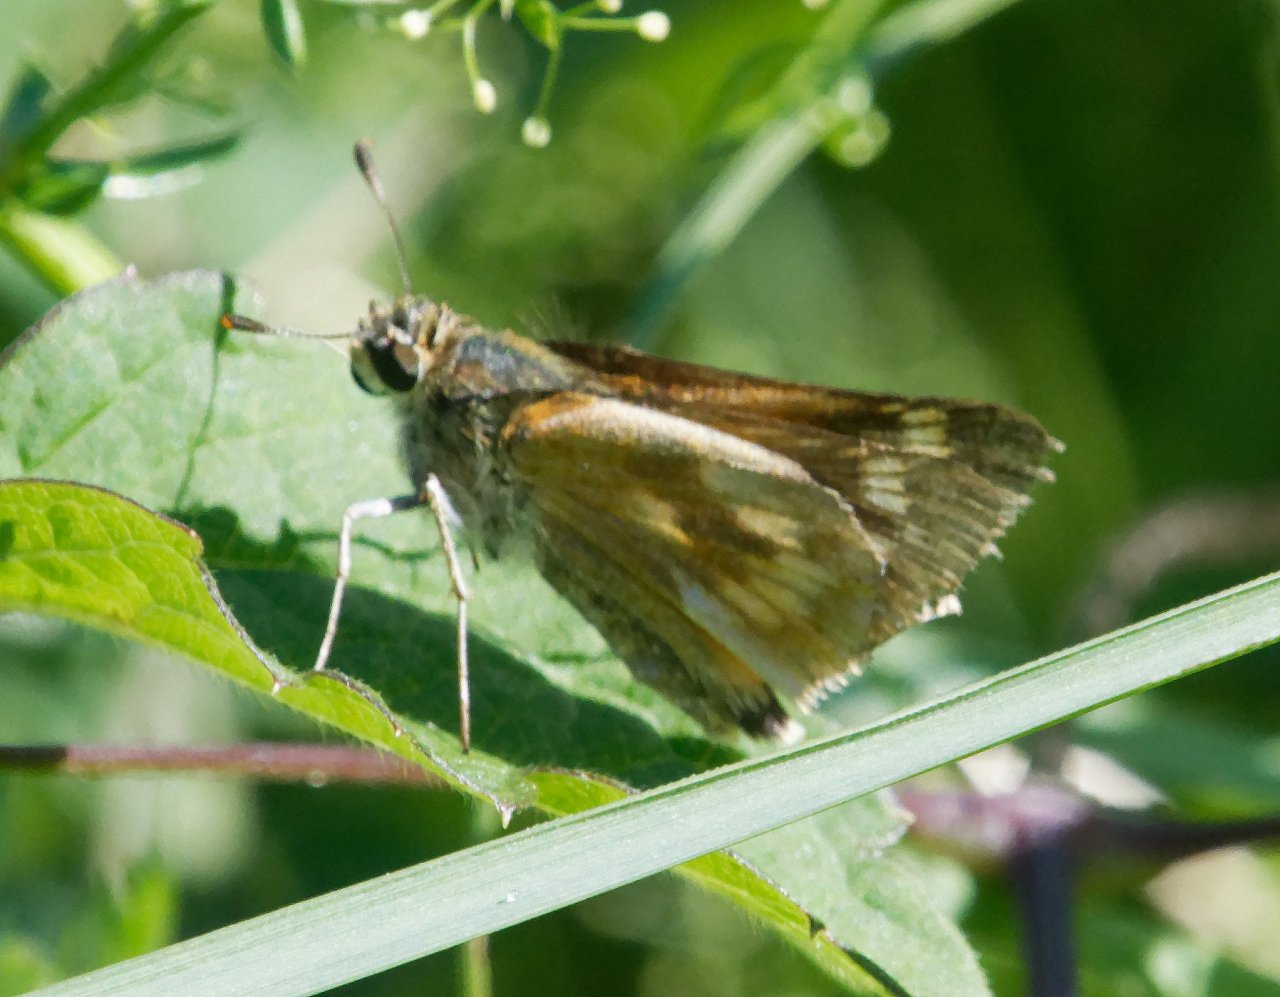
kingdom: Animalia
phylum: Arthropoda
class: Insecta
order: Lepidoptera
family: Hesperiidae
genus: Polites
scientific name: Polites
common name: Long Dash Skipper
